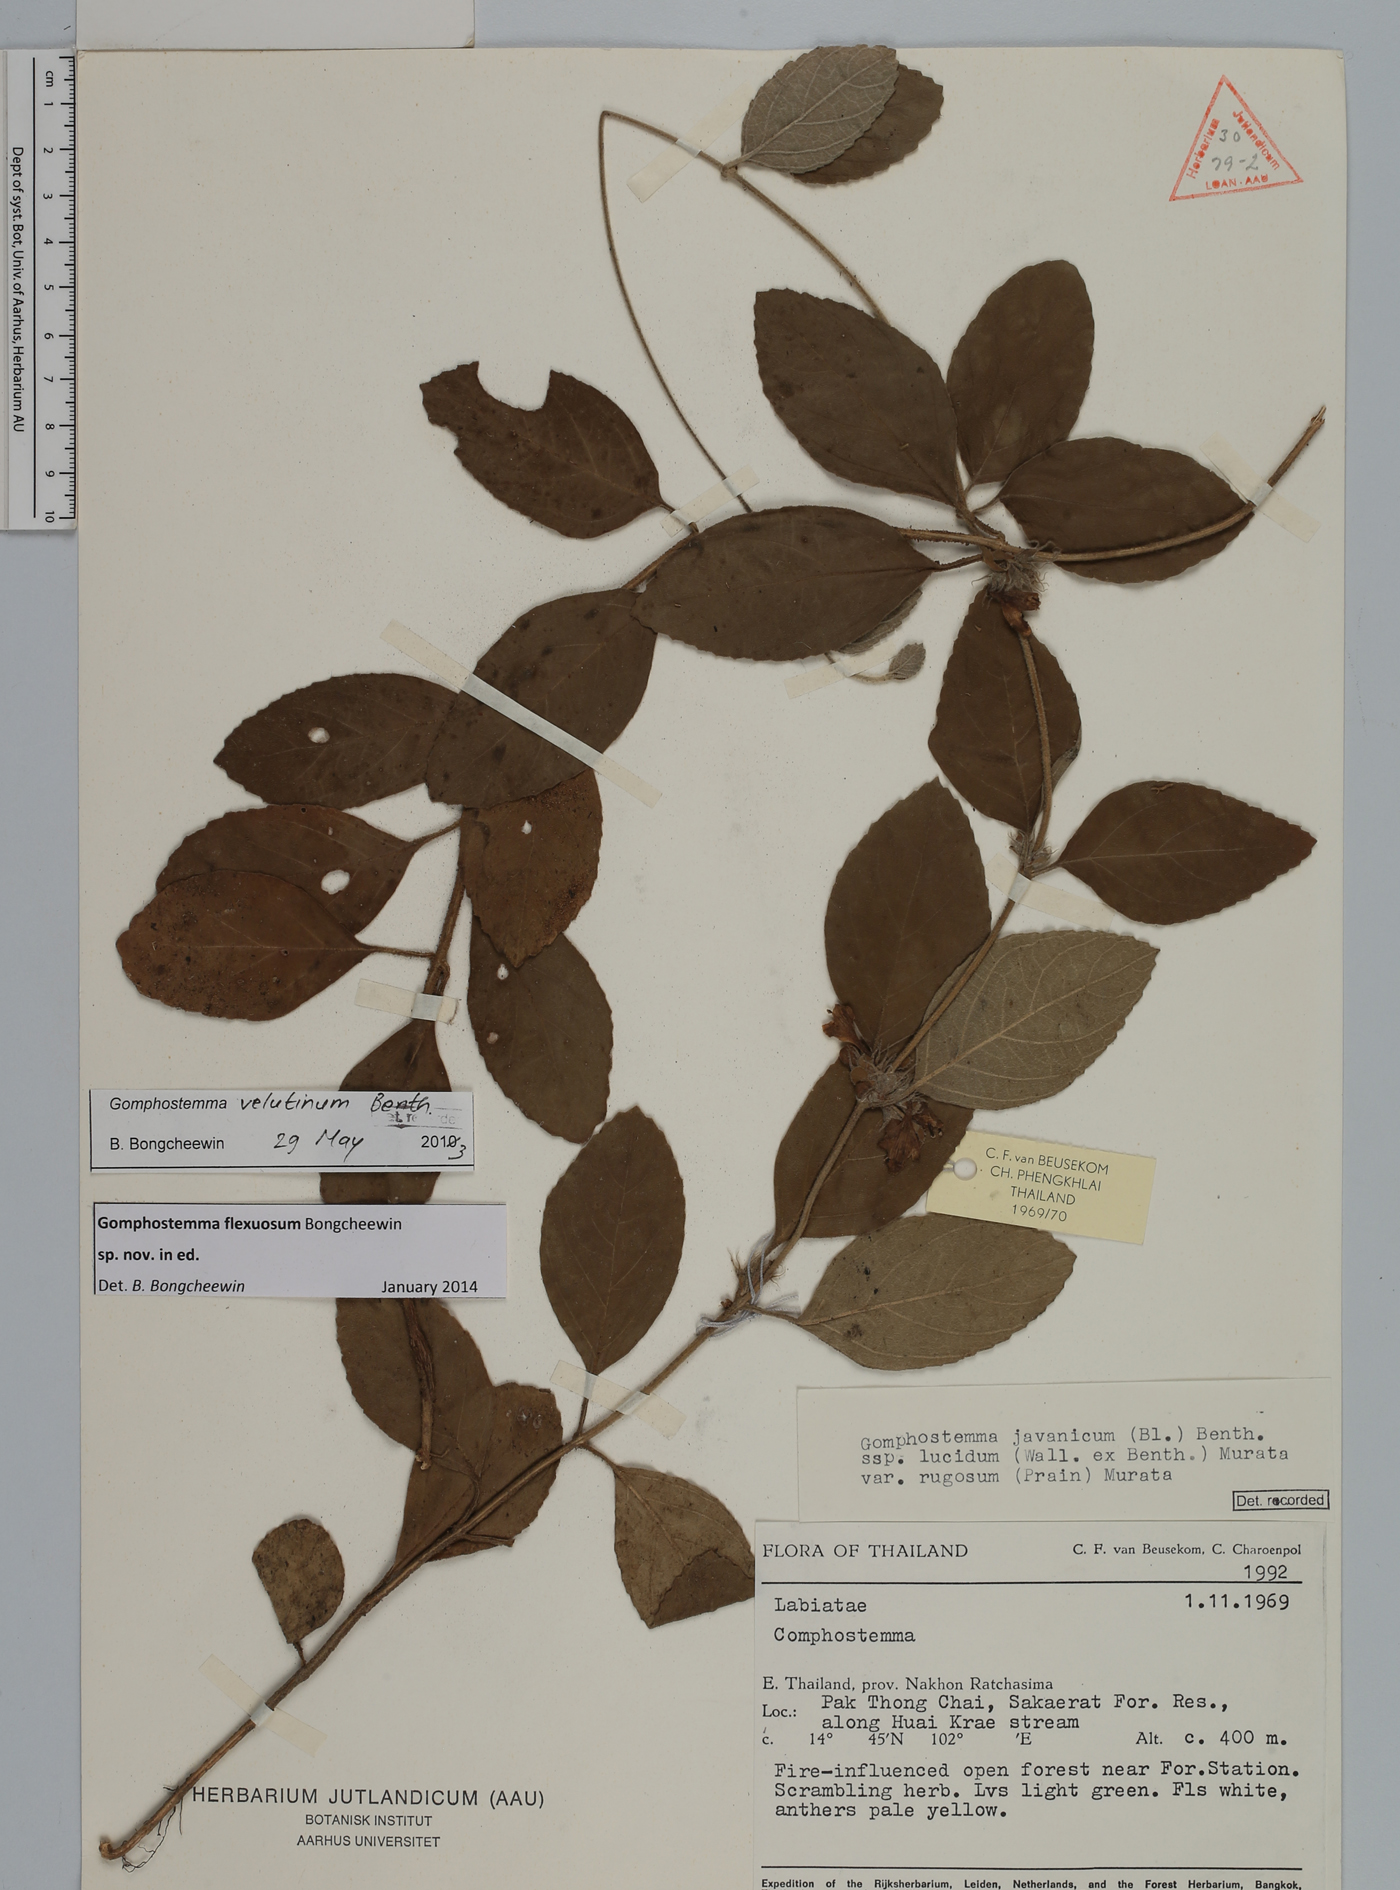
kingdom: Plantae
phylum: Tracheophyta
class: Magnoliopsida
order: Lamiales
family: Lamiaceae
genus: Gomphostemma
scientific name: Gomphostemma
